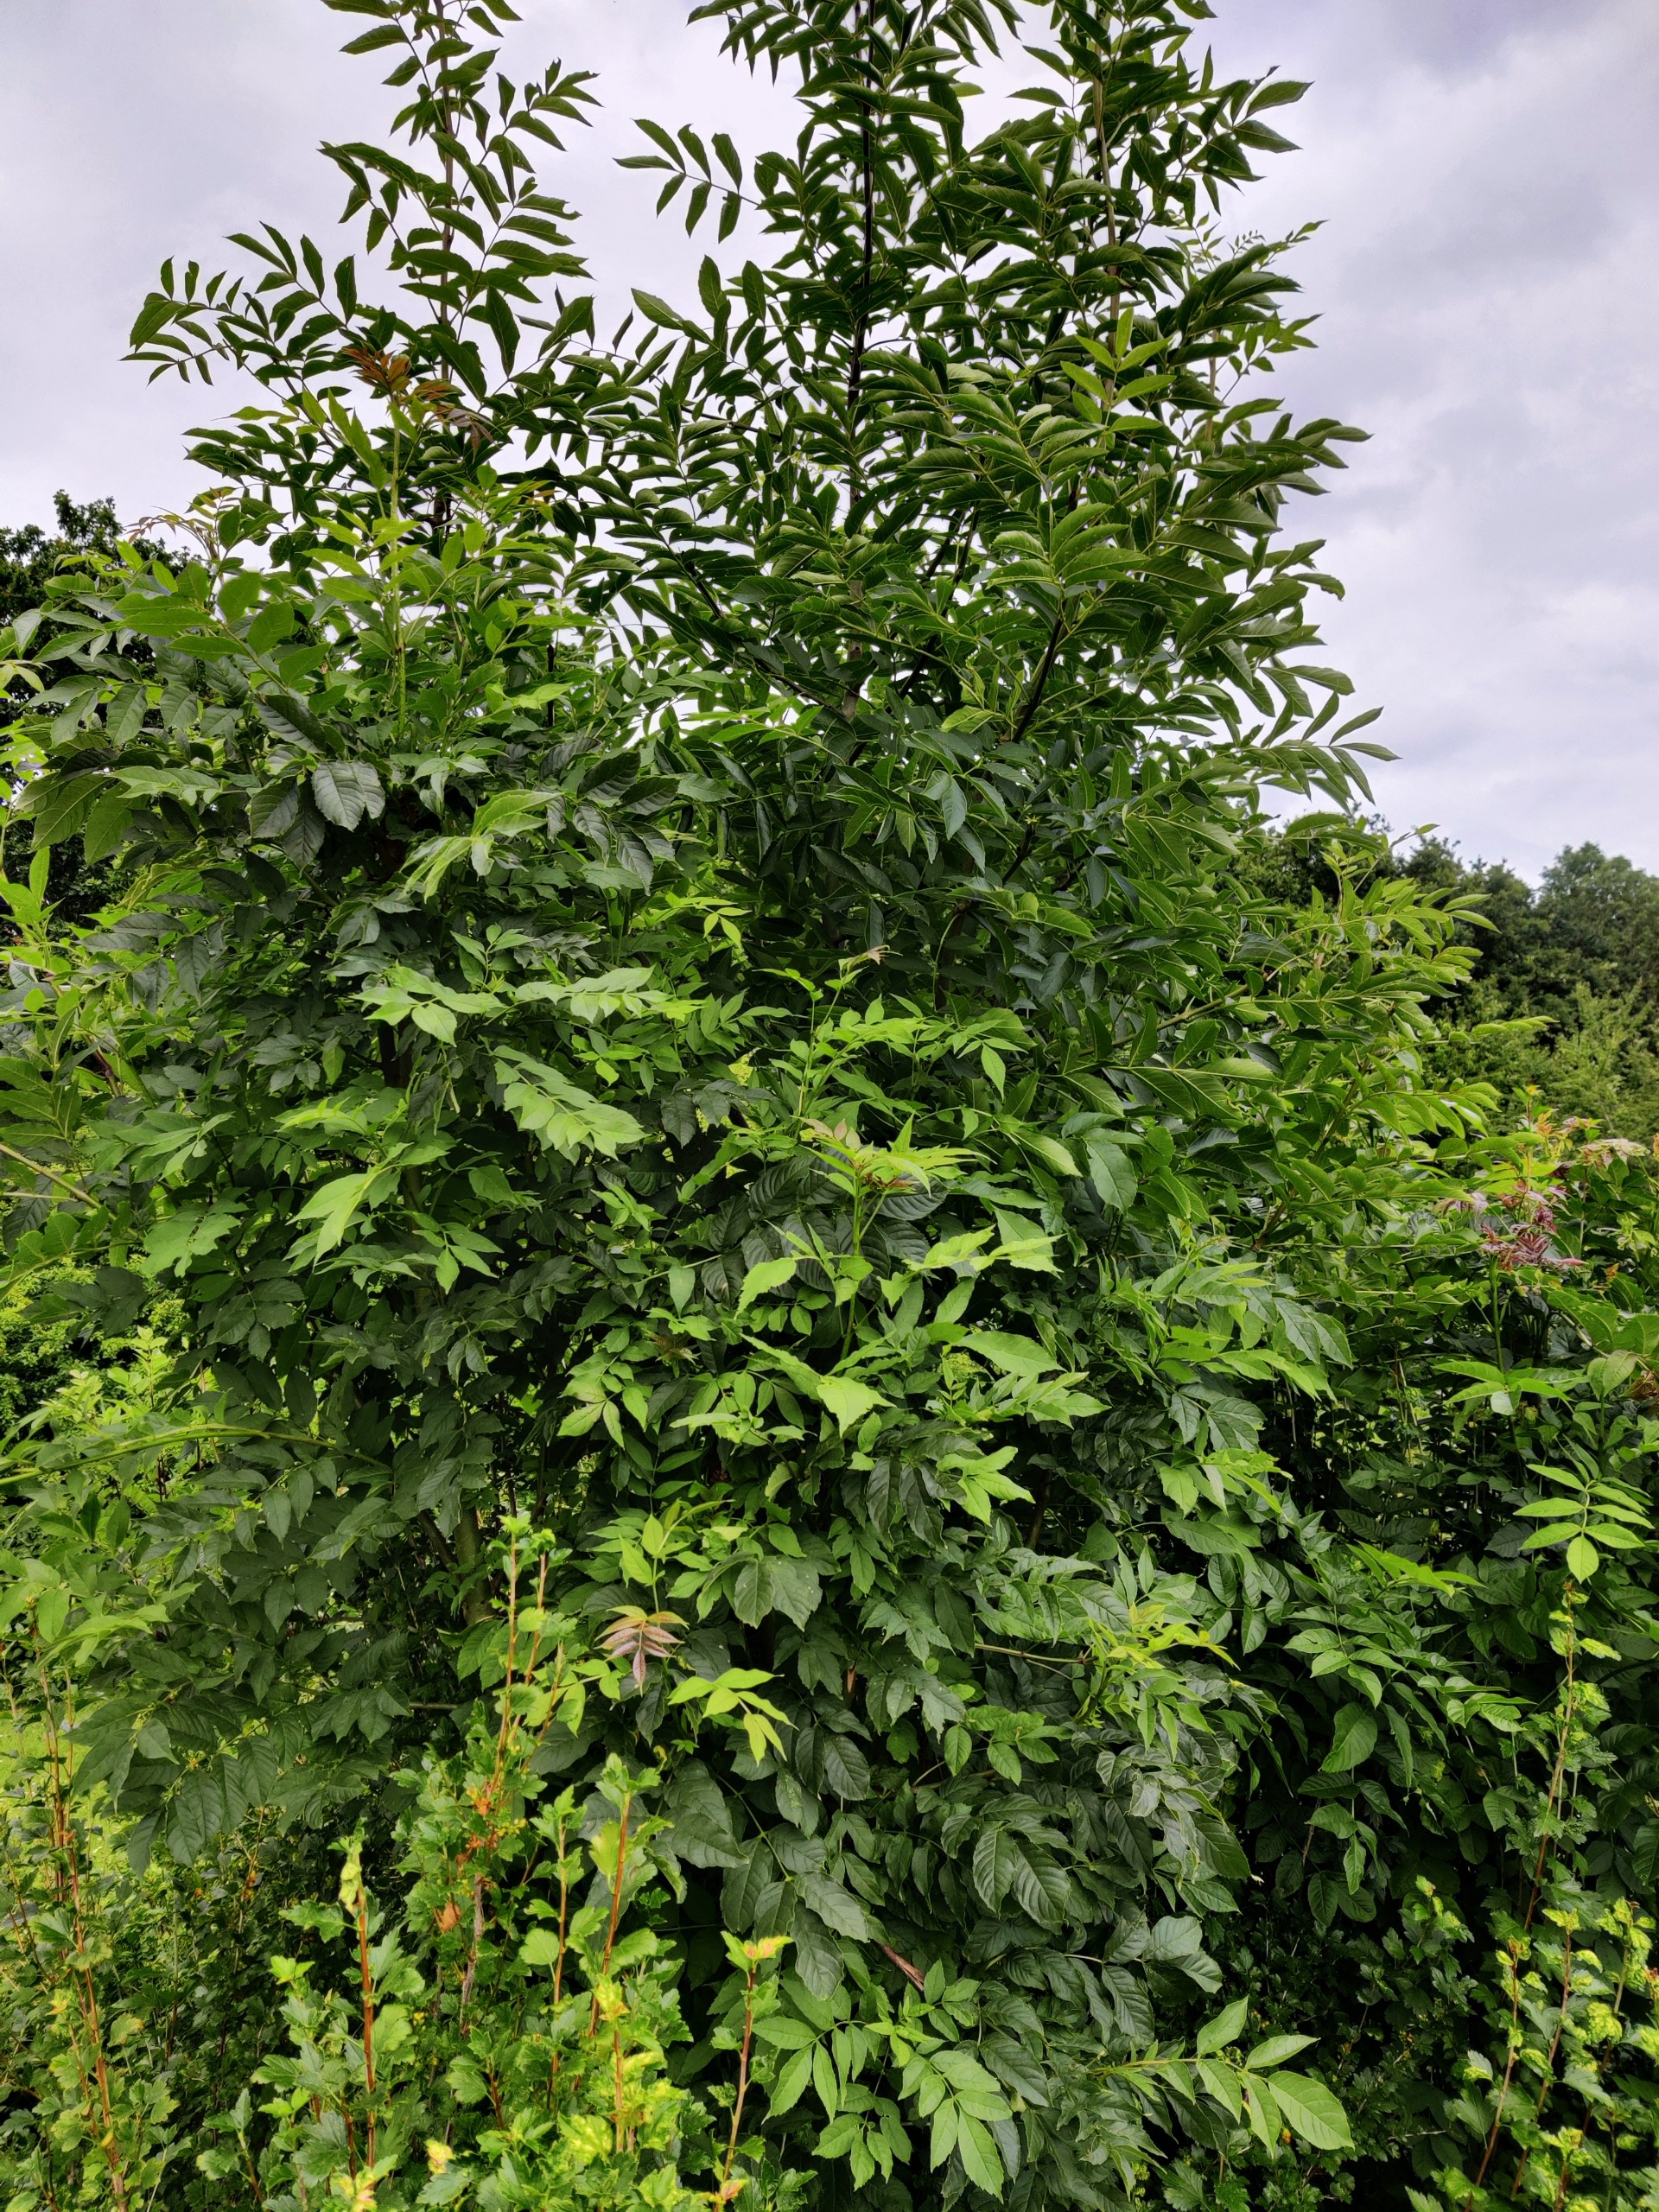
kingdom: Plantae
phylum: Tracheophyta
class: Magnoliopsida
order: Lamiales
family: Oleaceae
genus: Fraxinus
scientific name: Fraxinus excelsior
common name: Ask
